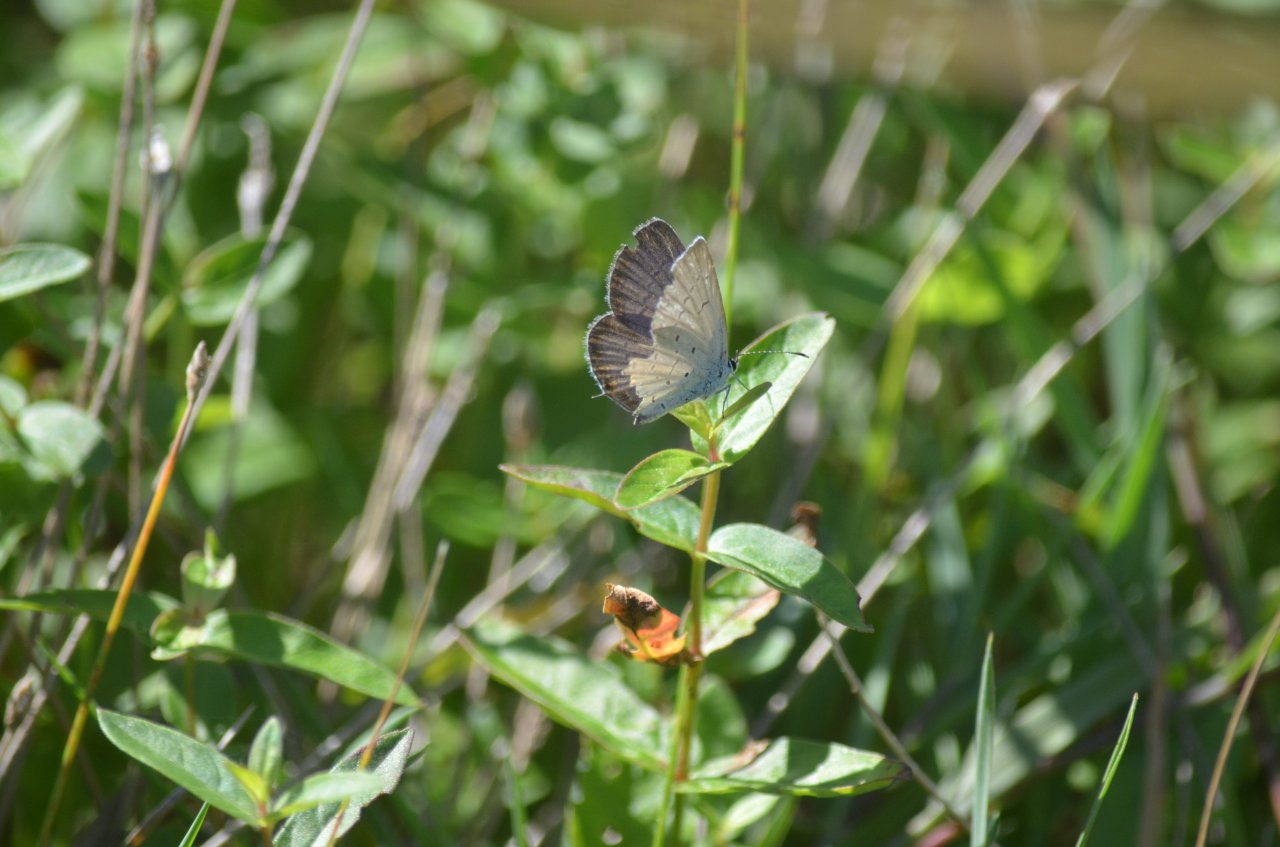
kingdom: Animalia
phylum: Arthropoda
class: Insecta
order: Lepidoptera
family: Lycaenidae
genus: Elkalyce
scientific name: Elkalyce comyntas
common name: Eastern Tailed-Blue
